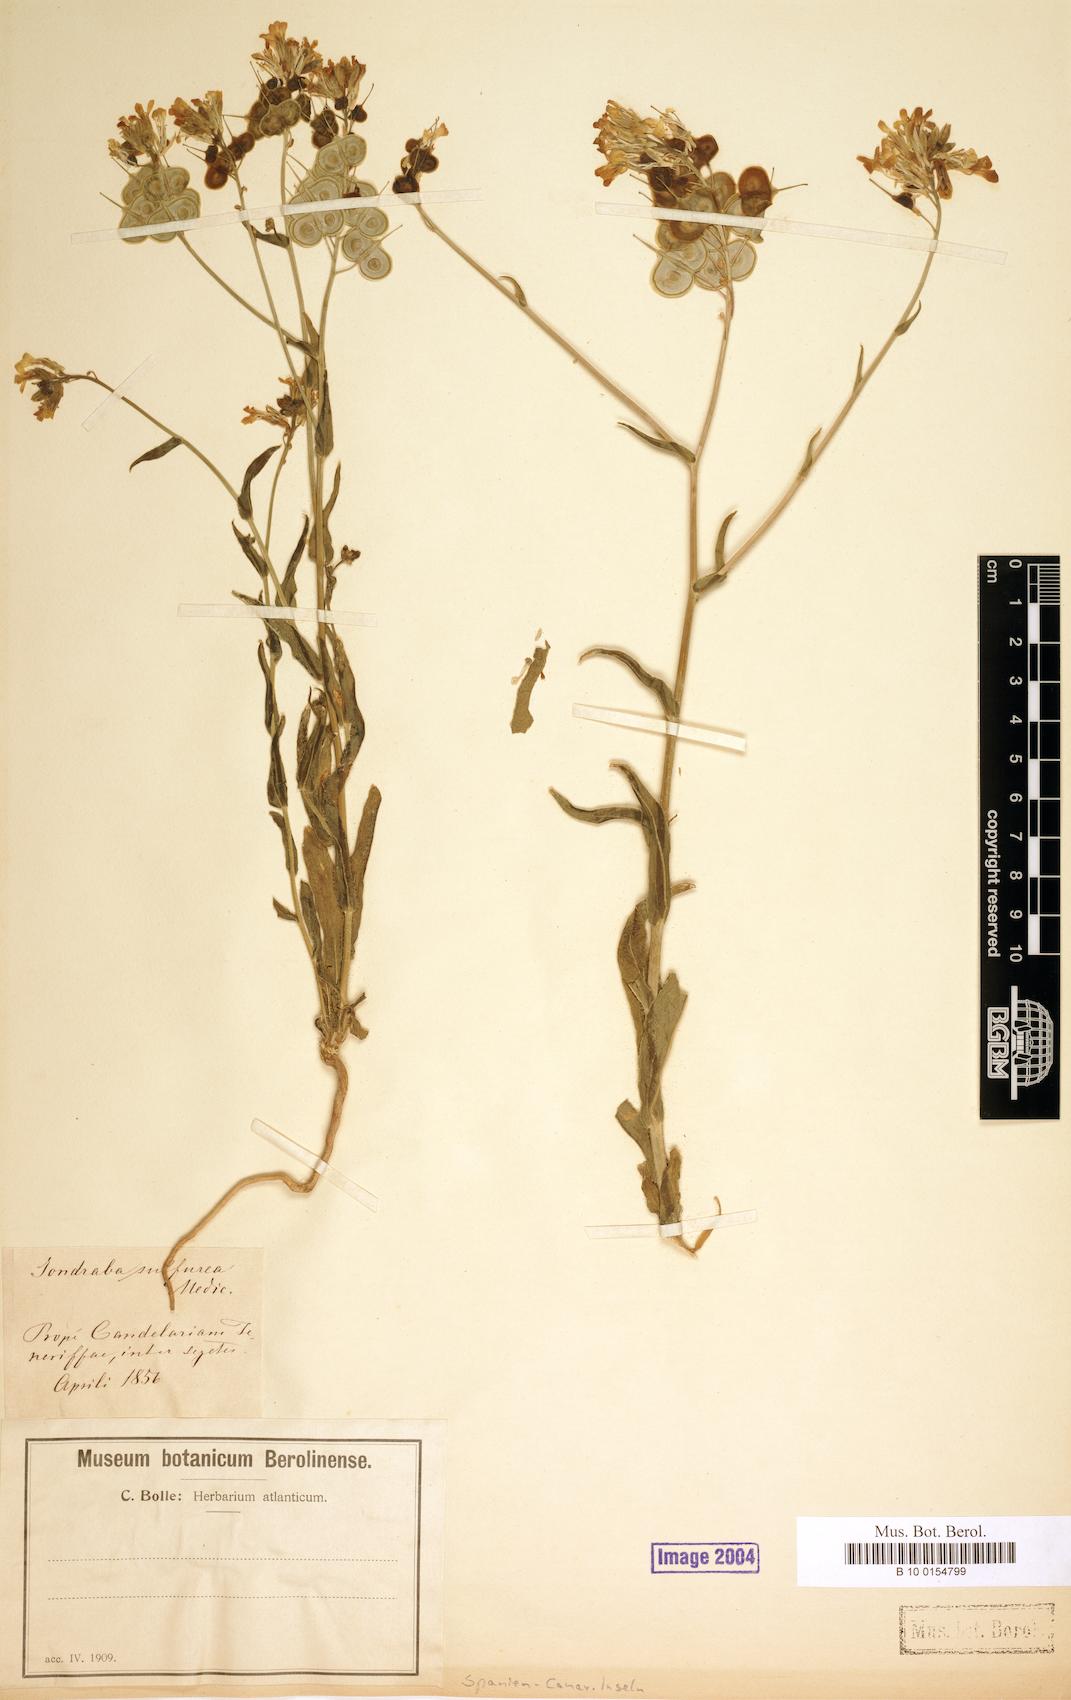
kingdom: Plantae
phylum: Tracheophyta
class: Magnoliopsida
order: Brassicales
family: Brassicaceae
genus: Biscutella
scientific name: Biscutella
